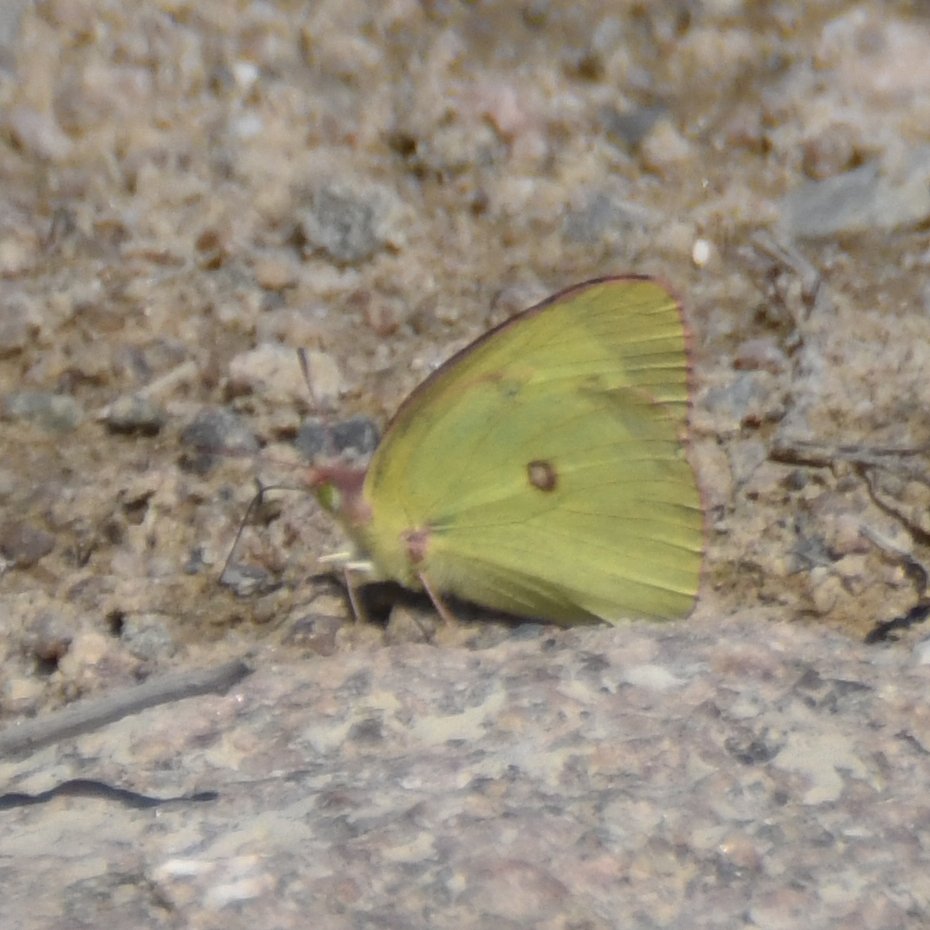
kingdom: Animalia
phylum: Arthropoda
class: Insecta
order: Lepidoptera
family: Pieridae
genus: Colias
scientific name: Colias interior
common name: Pink-edged Sulphur
